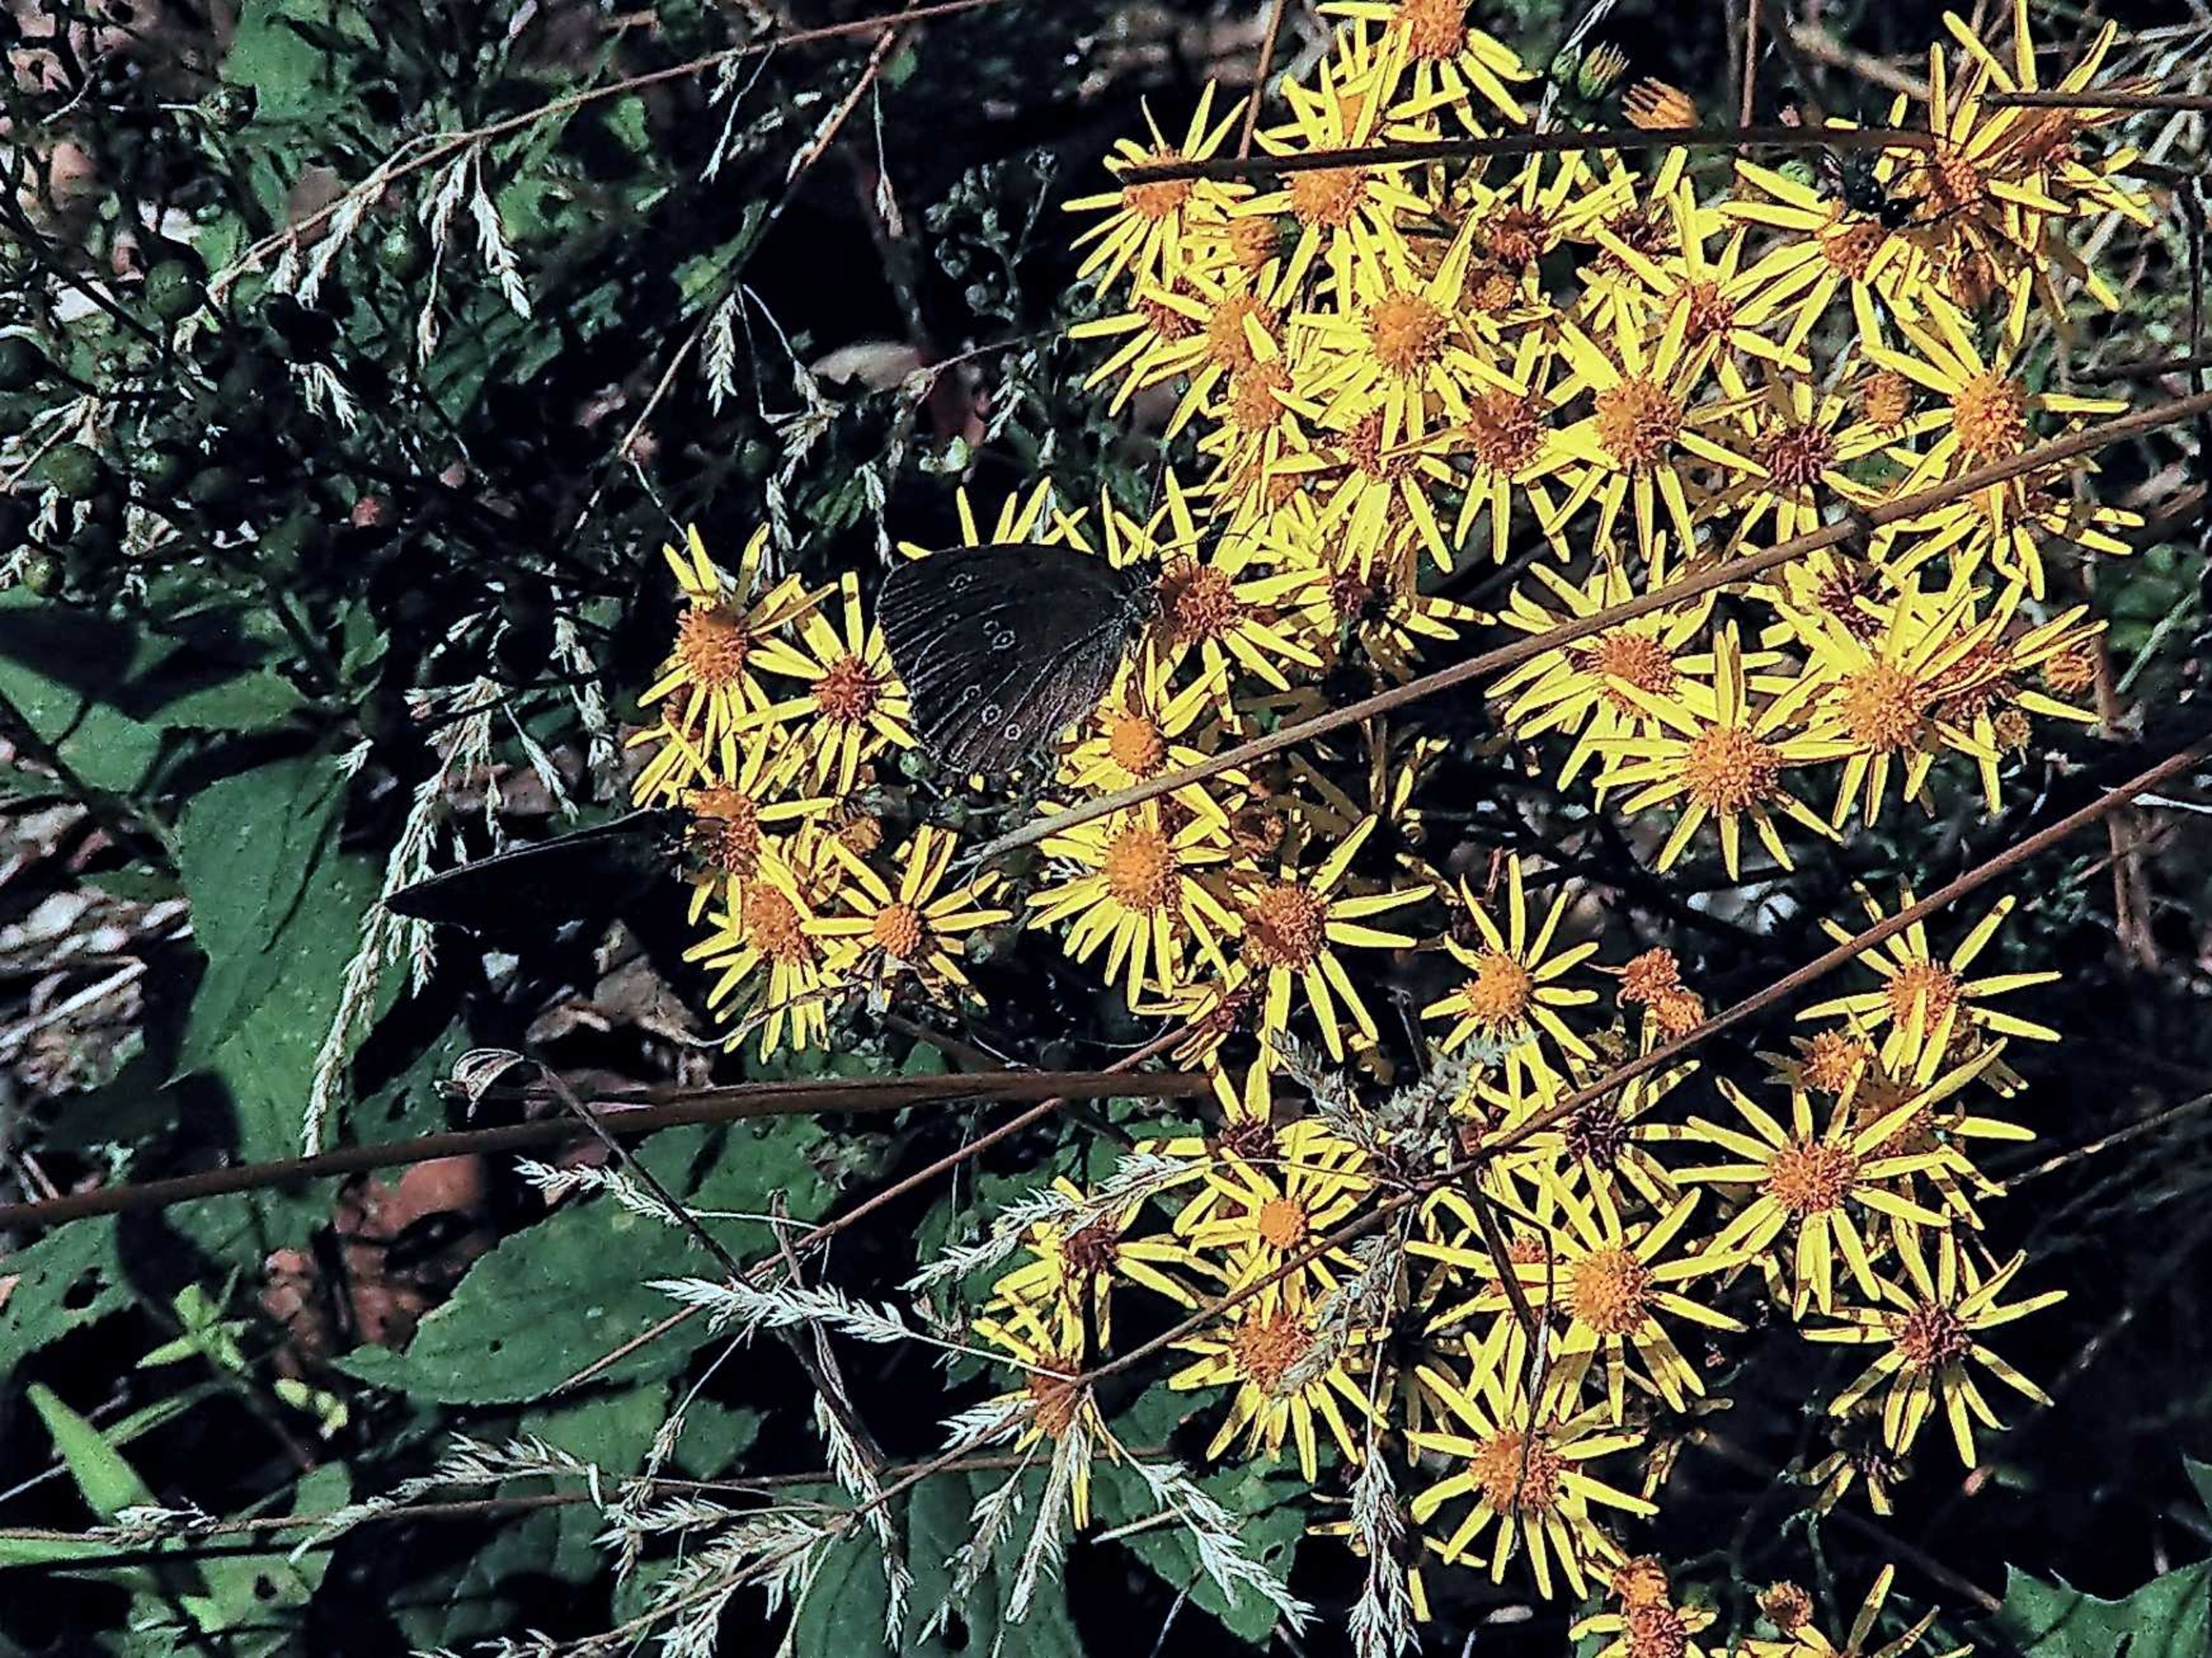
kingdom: Animalia
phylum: Arthropoda
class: Insecta
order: Lepidoptera
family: Nymphalidae
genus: Aphantopus
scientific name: Aphantopus hyperantus
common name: Engrandøje
